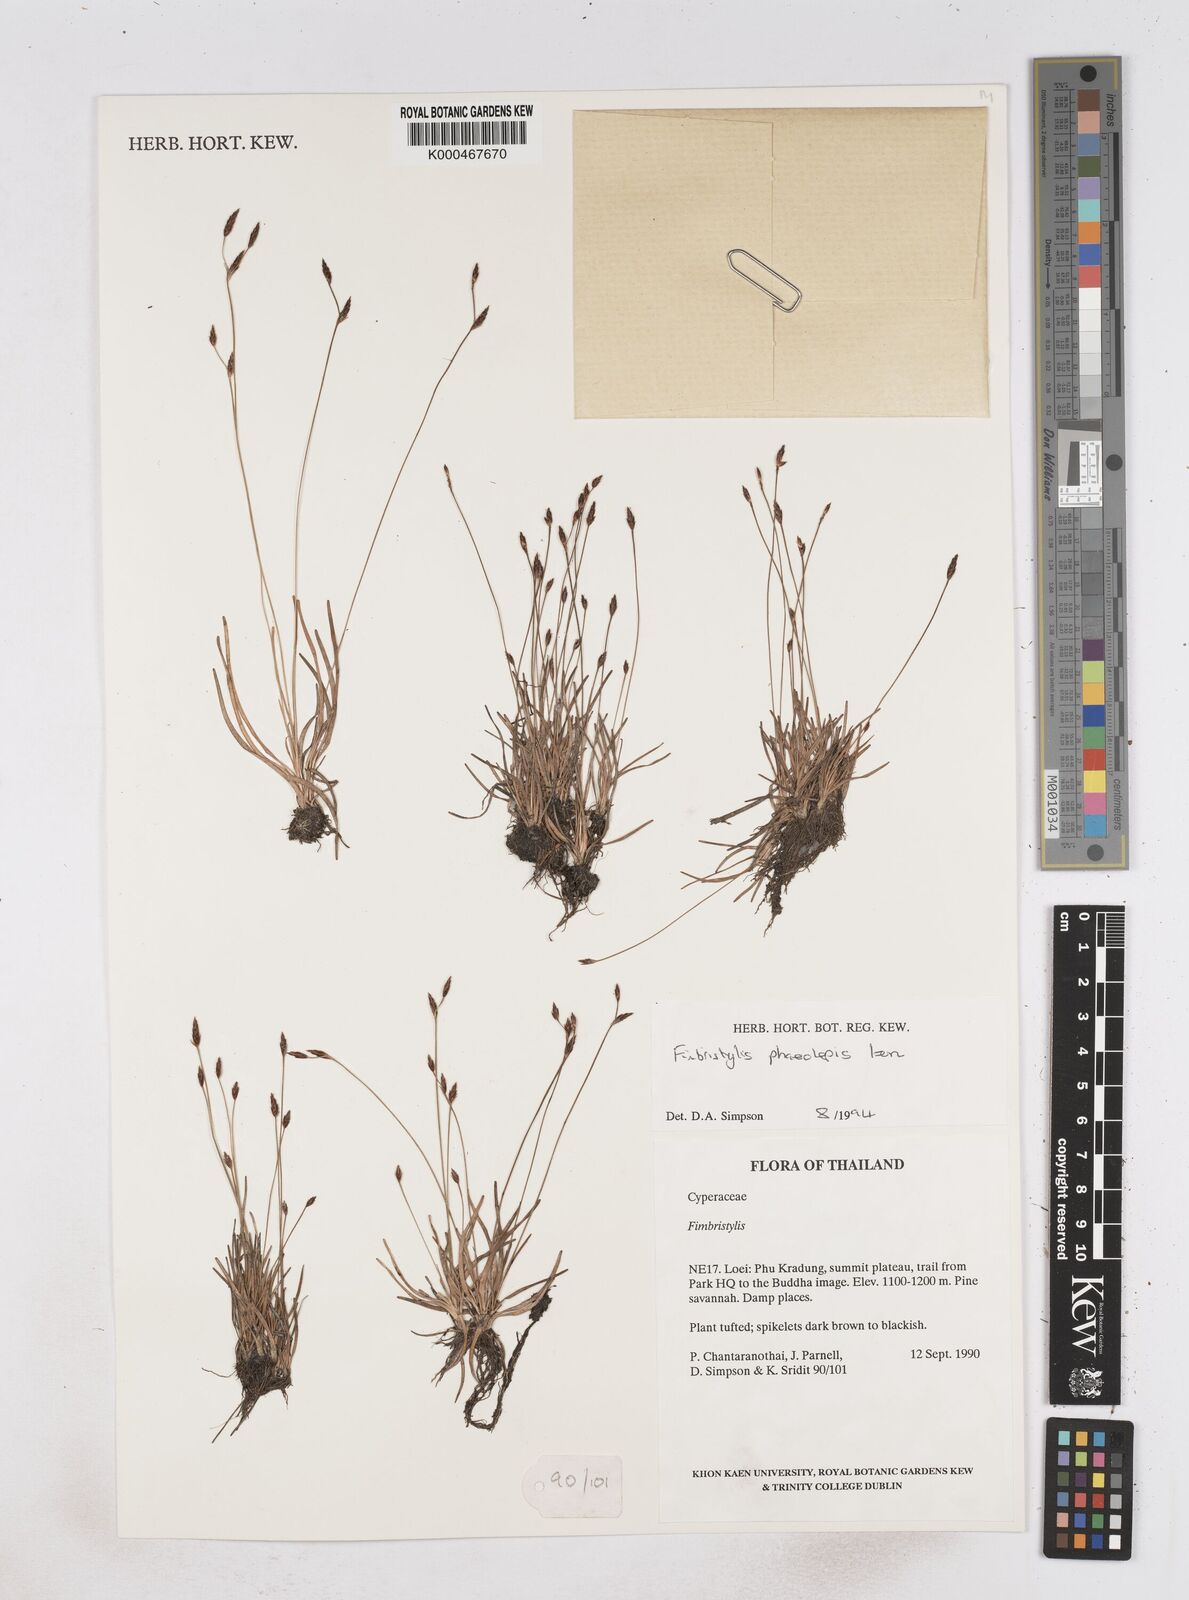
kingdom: Plantae
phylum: Tracheophyta
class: Liliopsida
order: Poales
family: Cyperaceae
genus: Fimbristylis
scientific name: Fimbristylis phaeolepis
